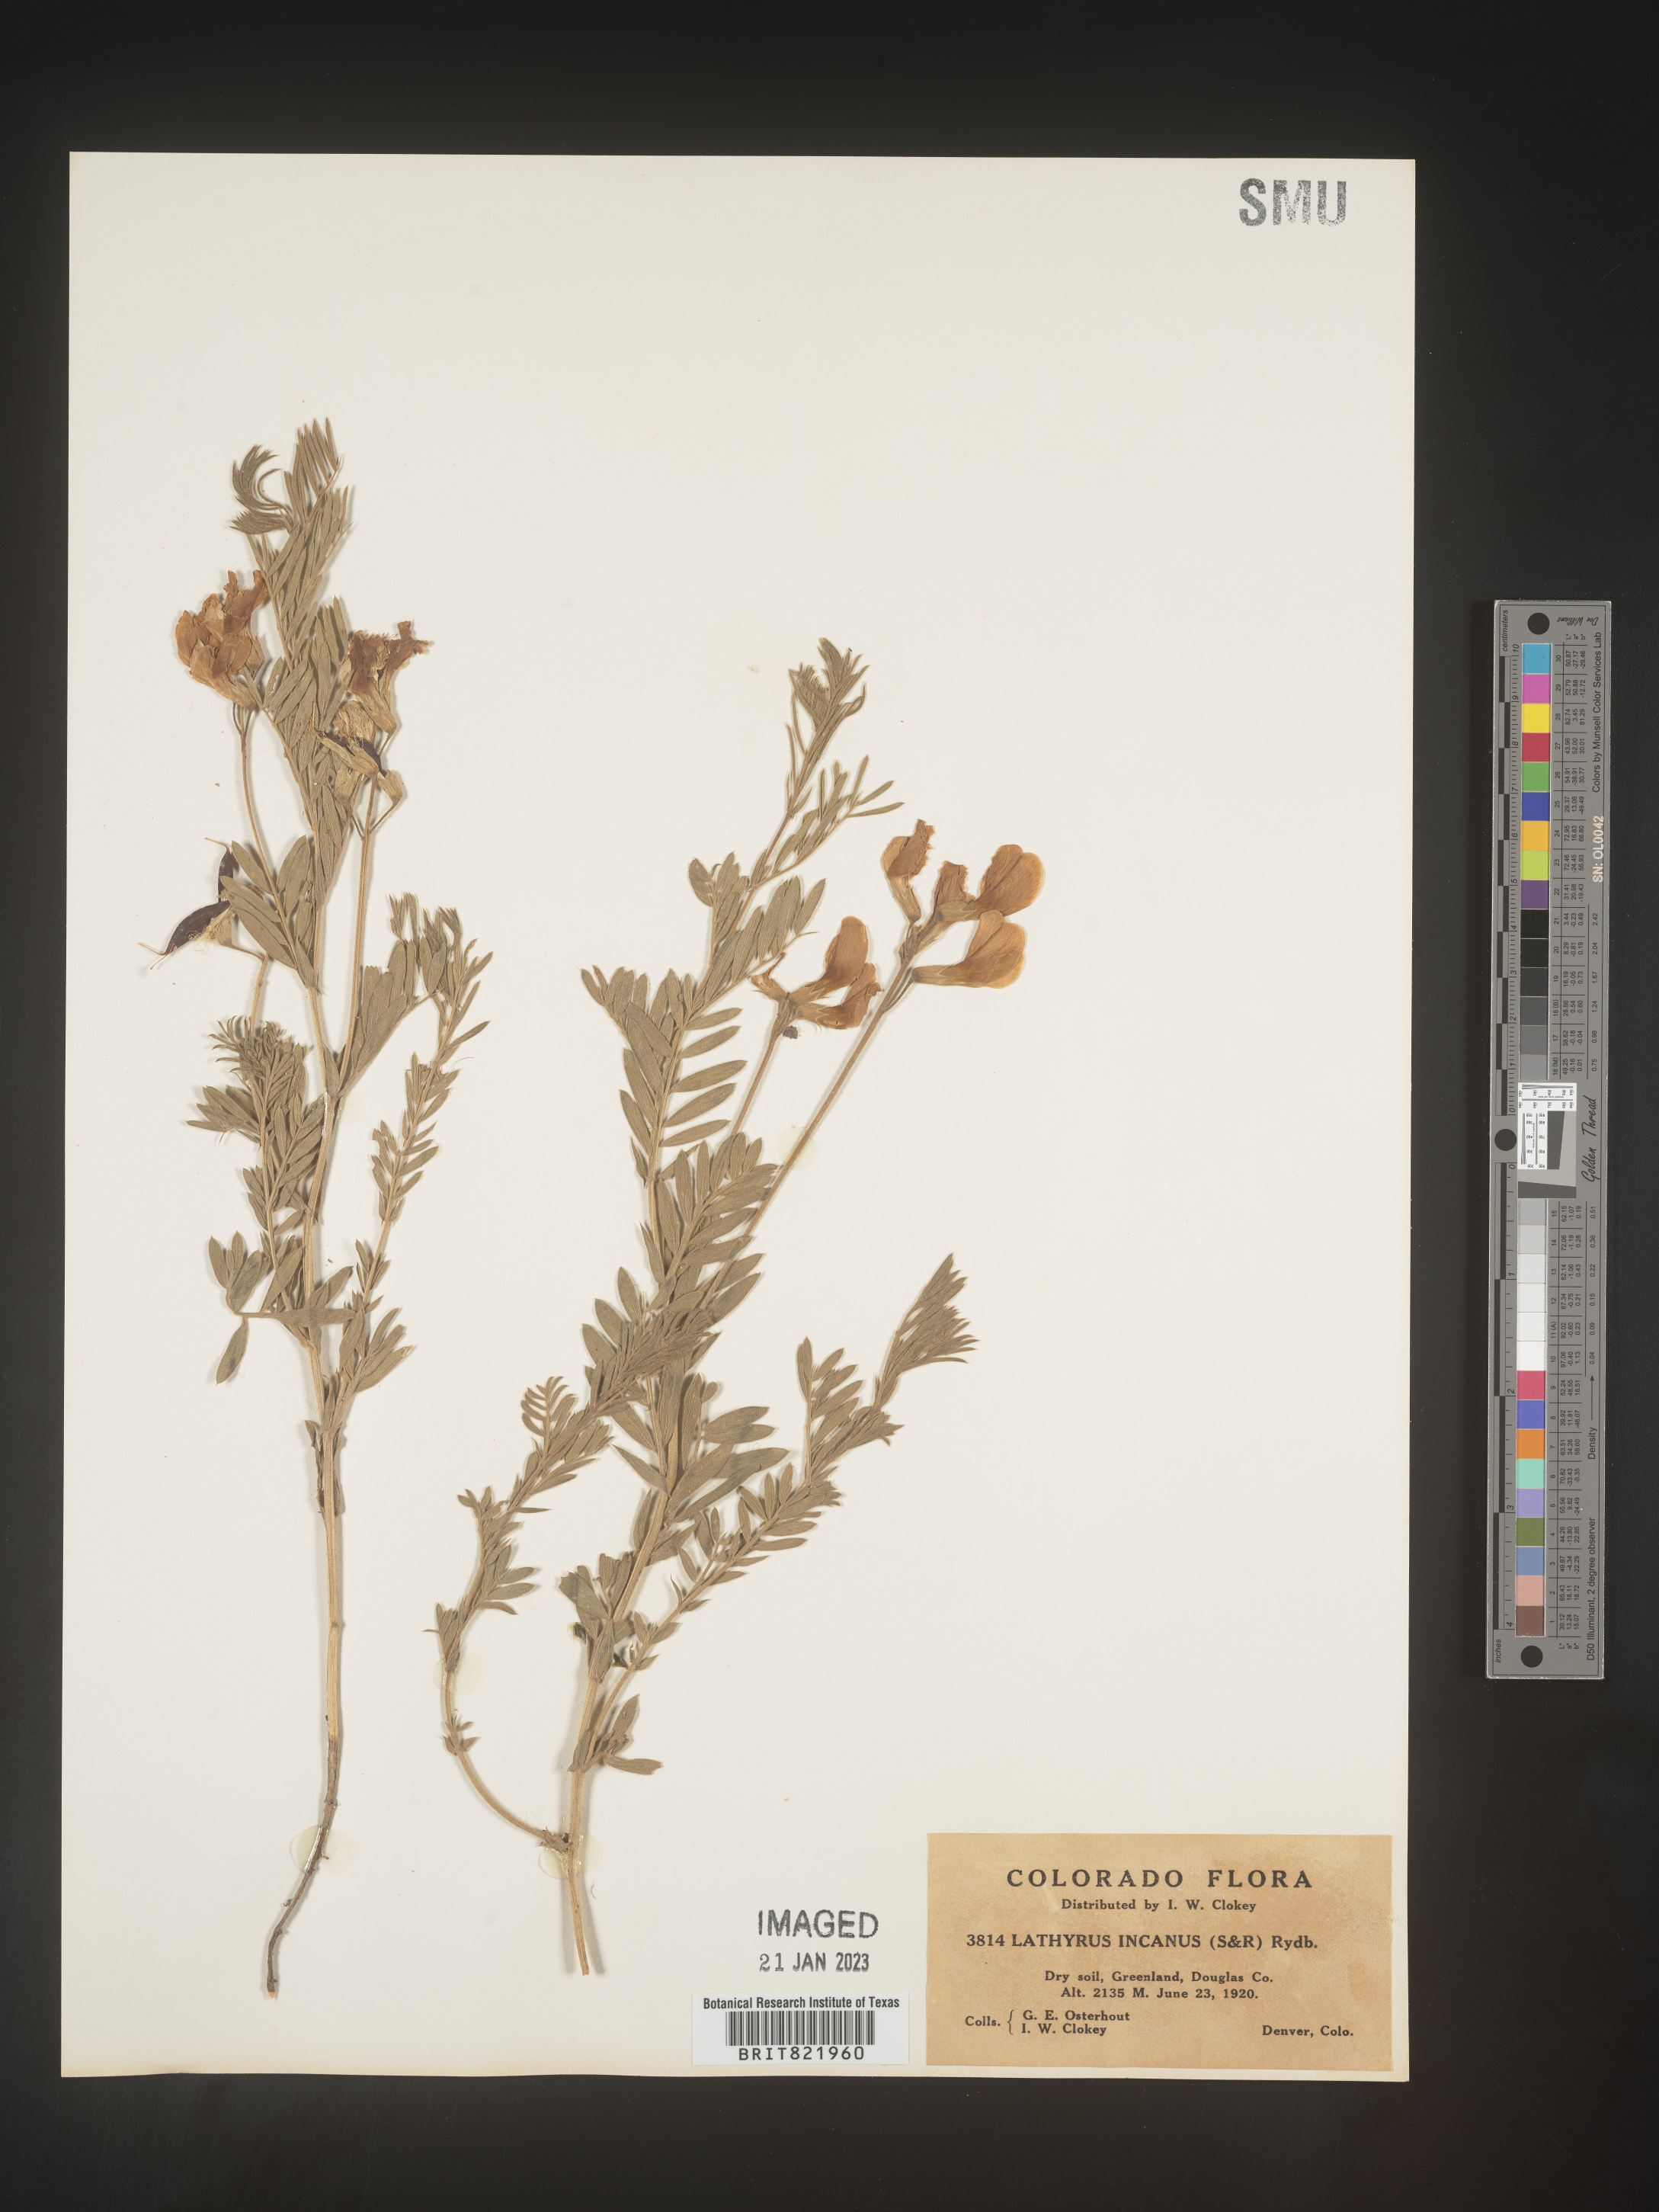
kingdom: Plantae
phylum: Tracheophyta
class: Magnoliopsida
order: Fabales
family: Fabaceae
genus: Lathyrus
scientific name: Lathyrus hirsutus
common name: Hairy vetchling
